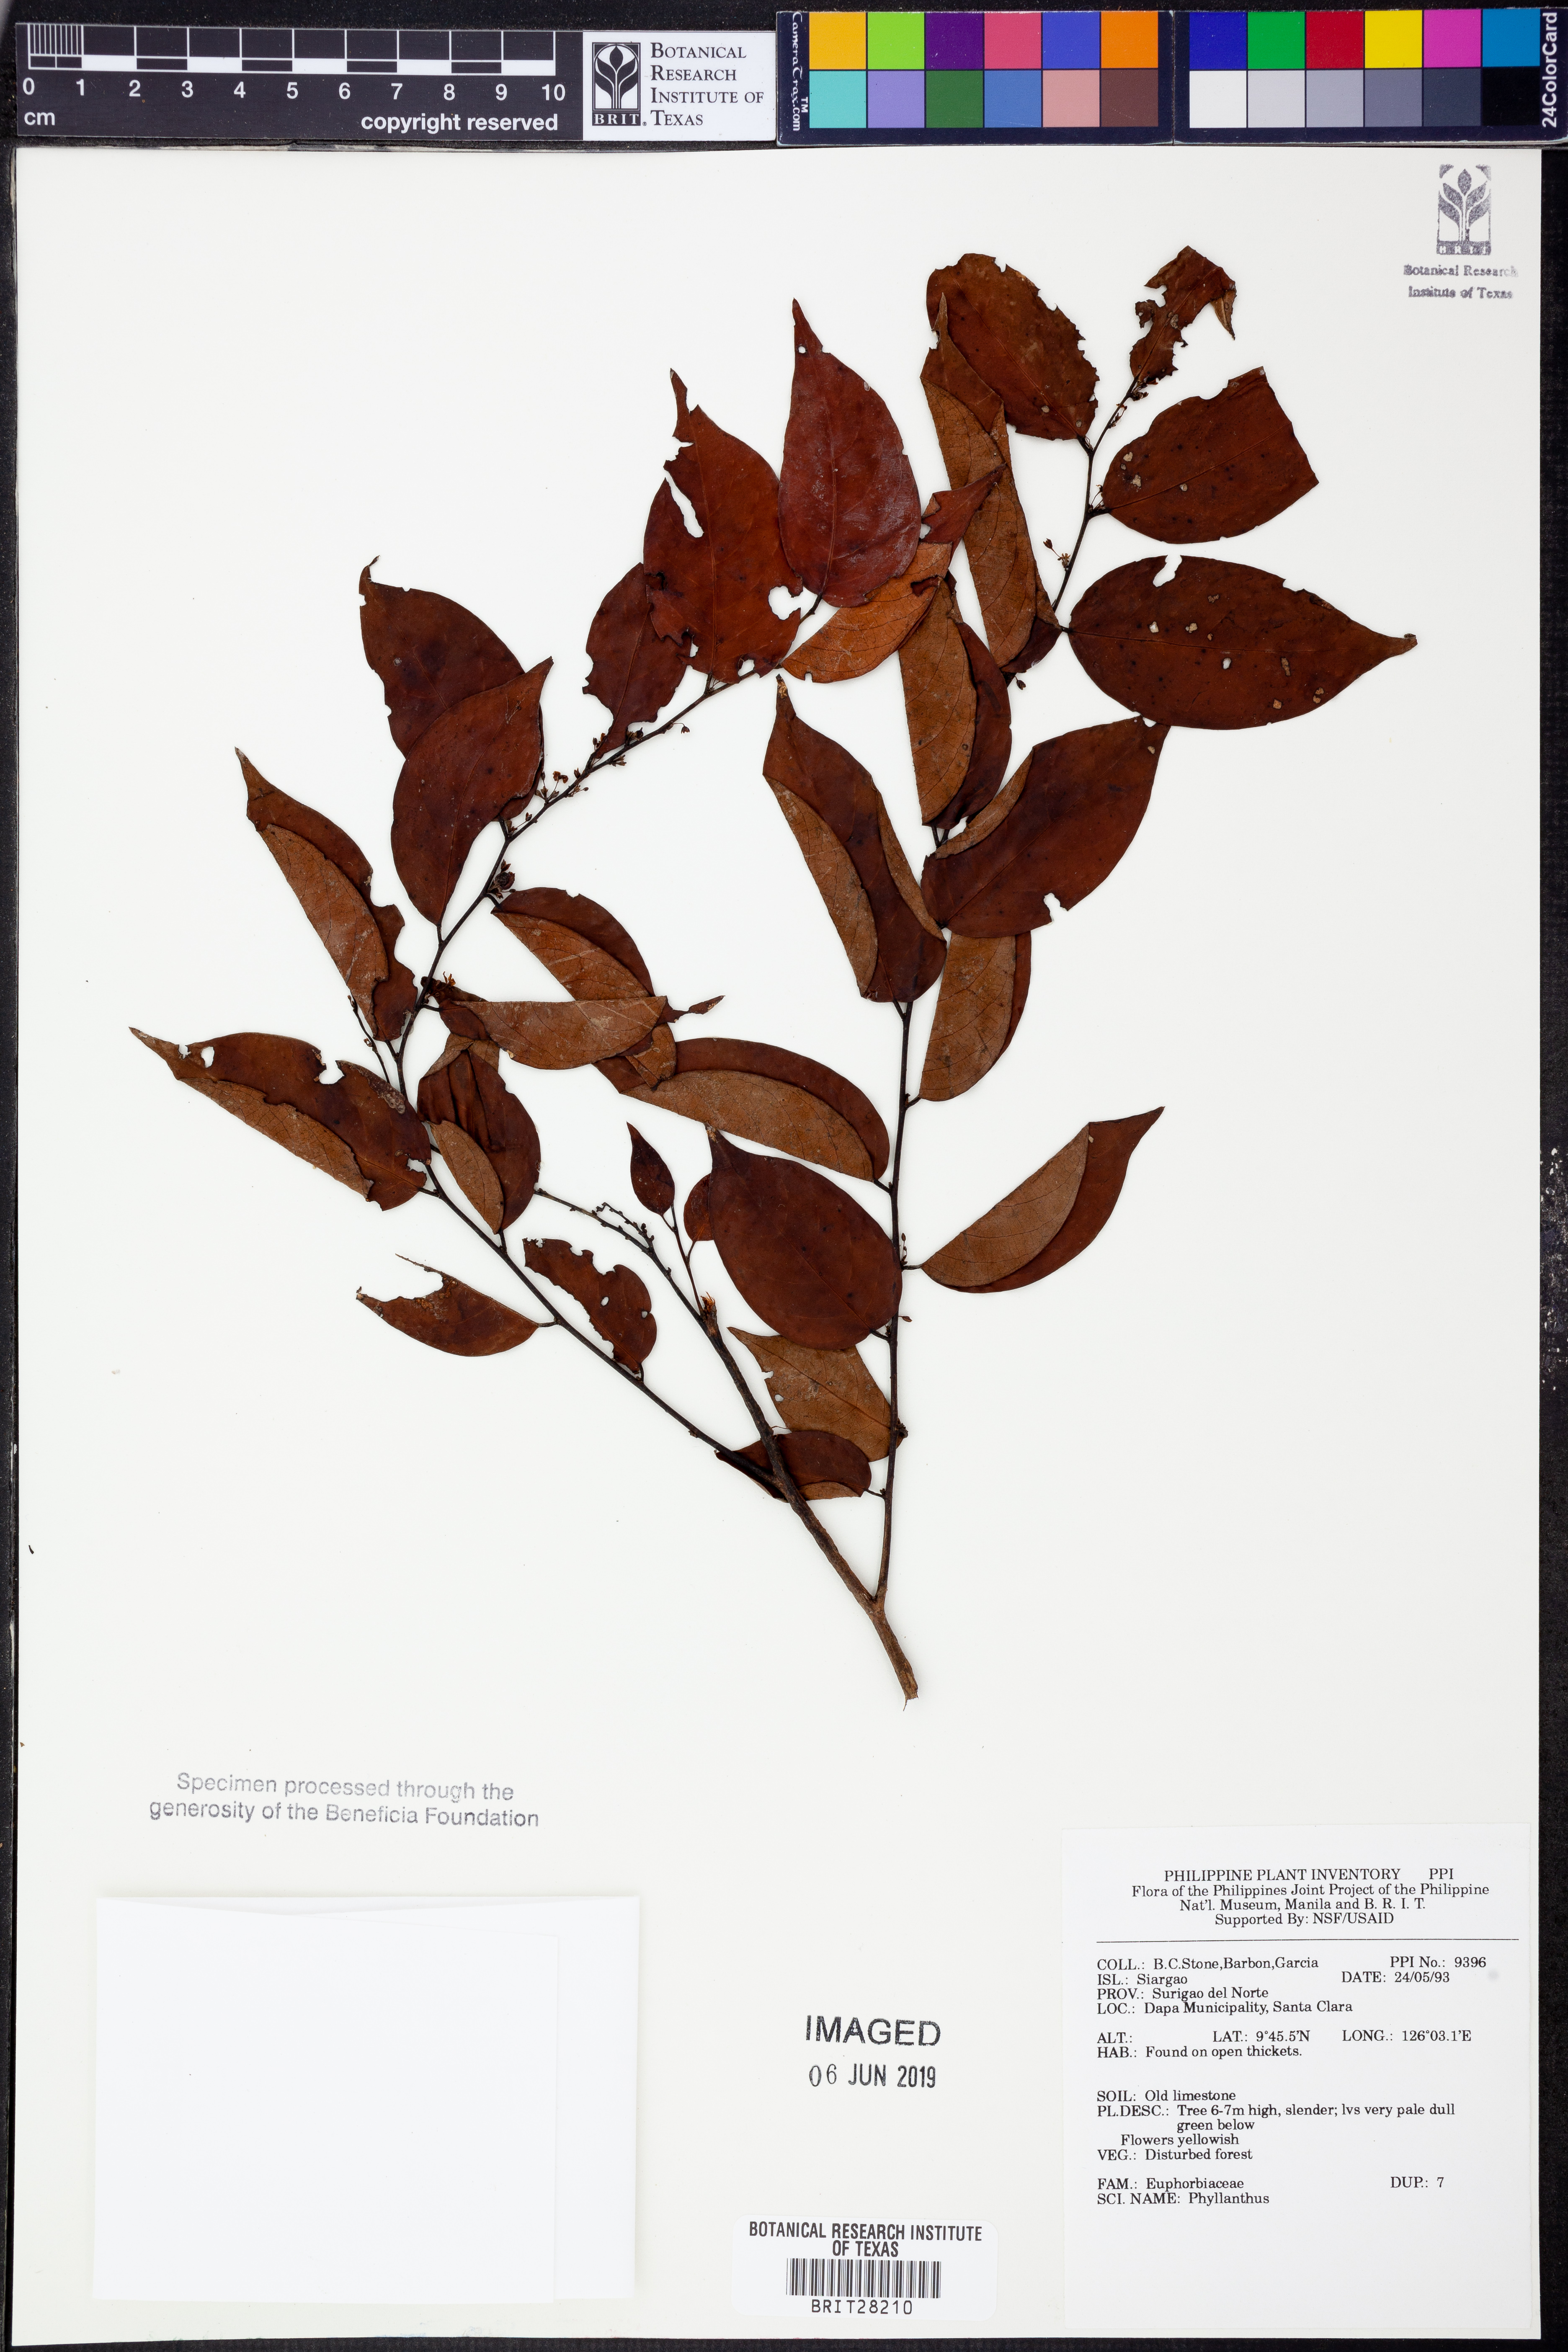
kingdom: Plantae
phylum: Tracheophyta
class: Magnoliopsida
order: Malpighiales
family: Phyllanthaceae
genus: Phyllanthus
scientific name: Phyllanthus
